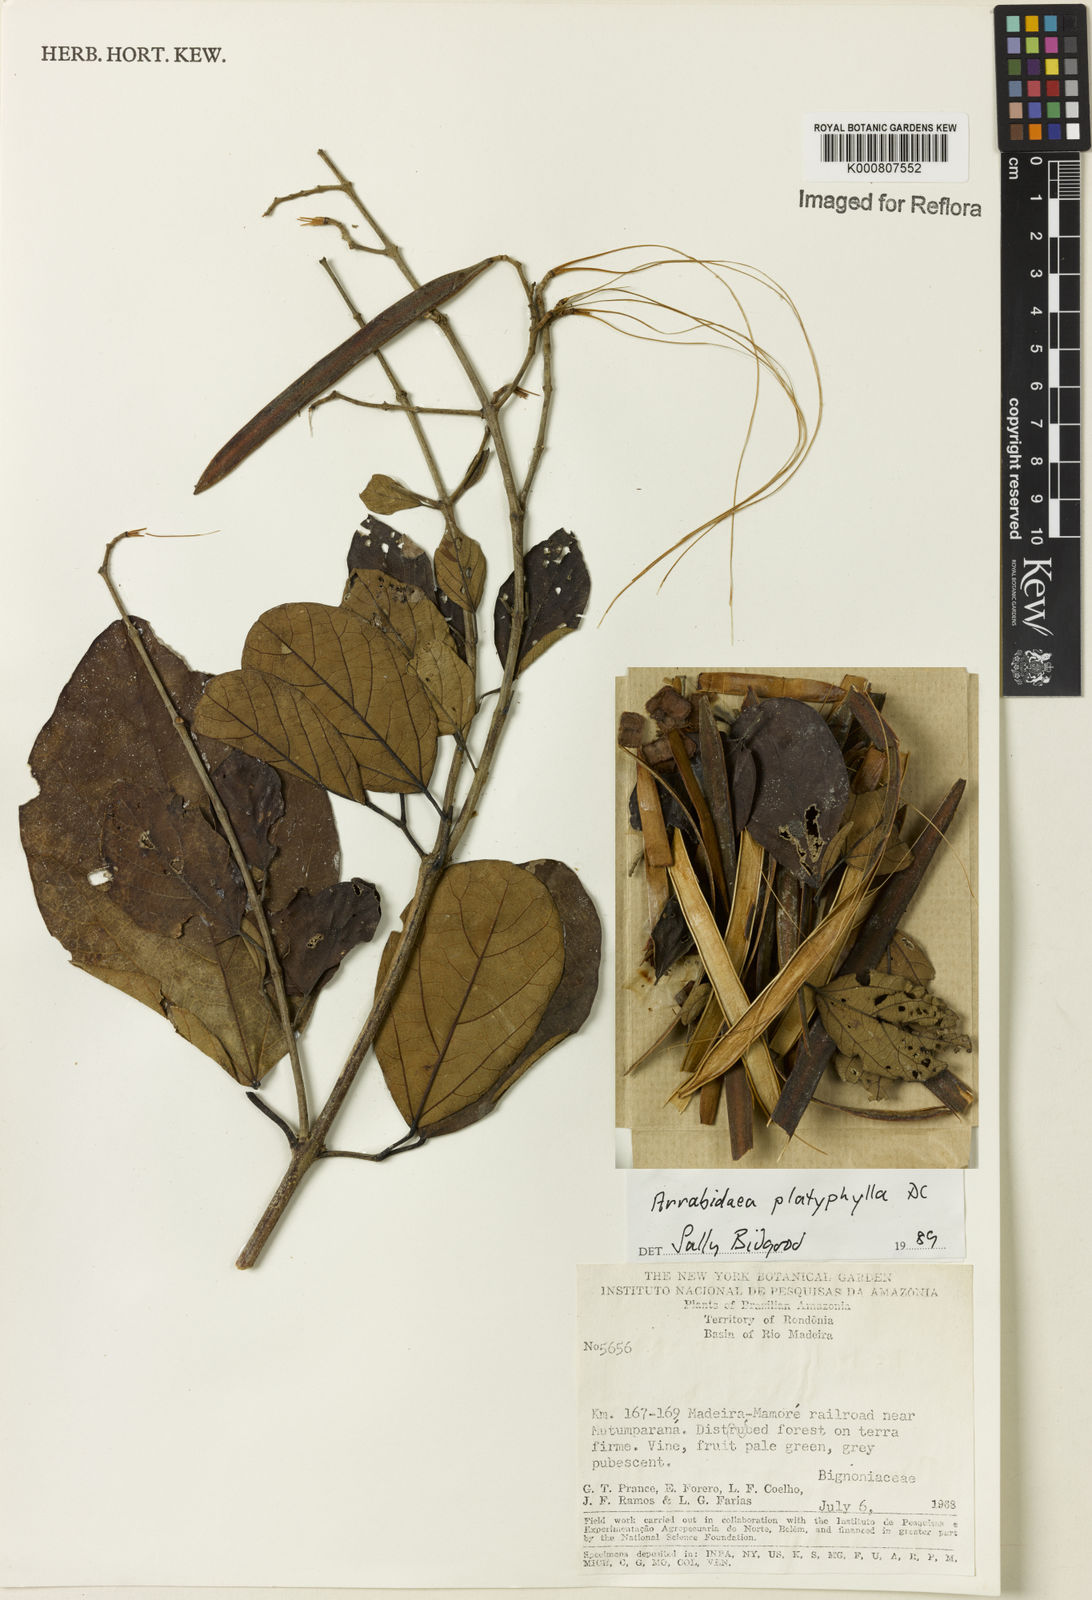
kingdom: Plantae
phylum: Tracheophyta
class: Magnoliopsida
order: Lamiales
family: Bignoniaceae
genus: Xylophragma
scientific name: Xylophragma platyphyllum
